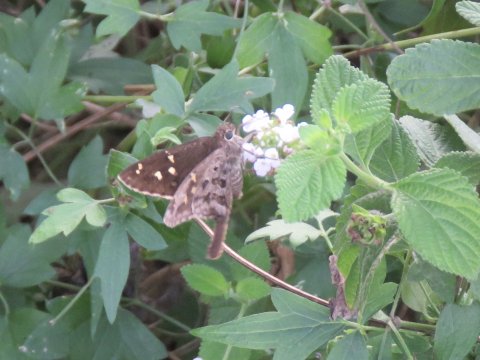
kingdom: Animalia
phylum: Arthropoda
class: Insecta
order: Lepidoptera
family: Hesperiidae
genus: Urbanus
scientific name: Urbanus dorantes
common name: Dorantes Longtail
